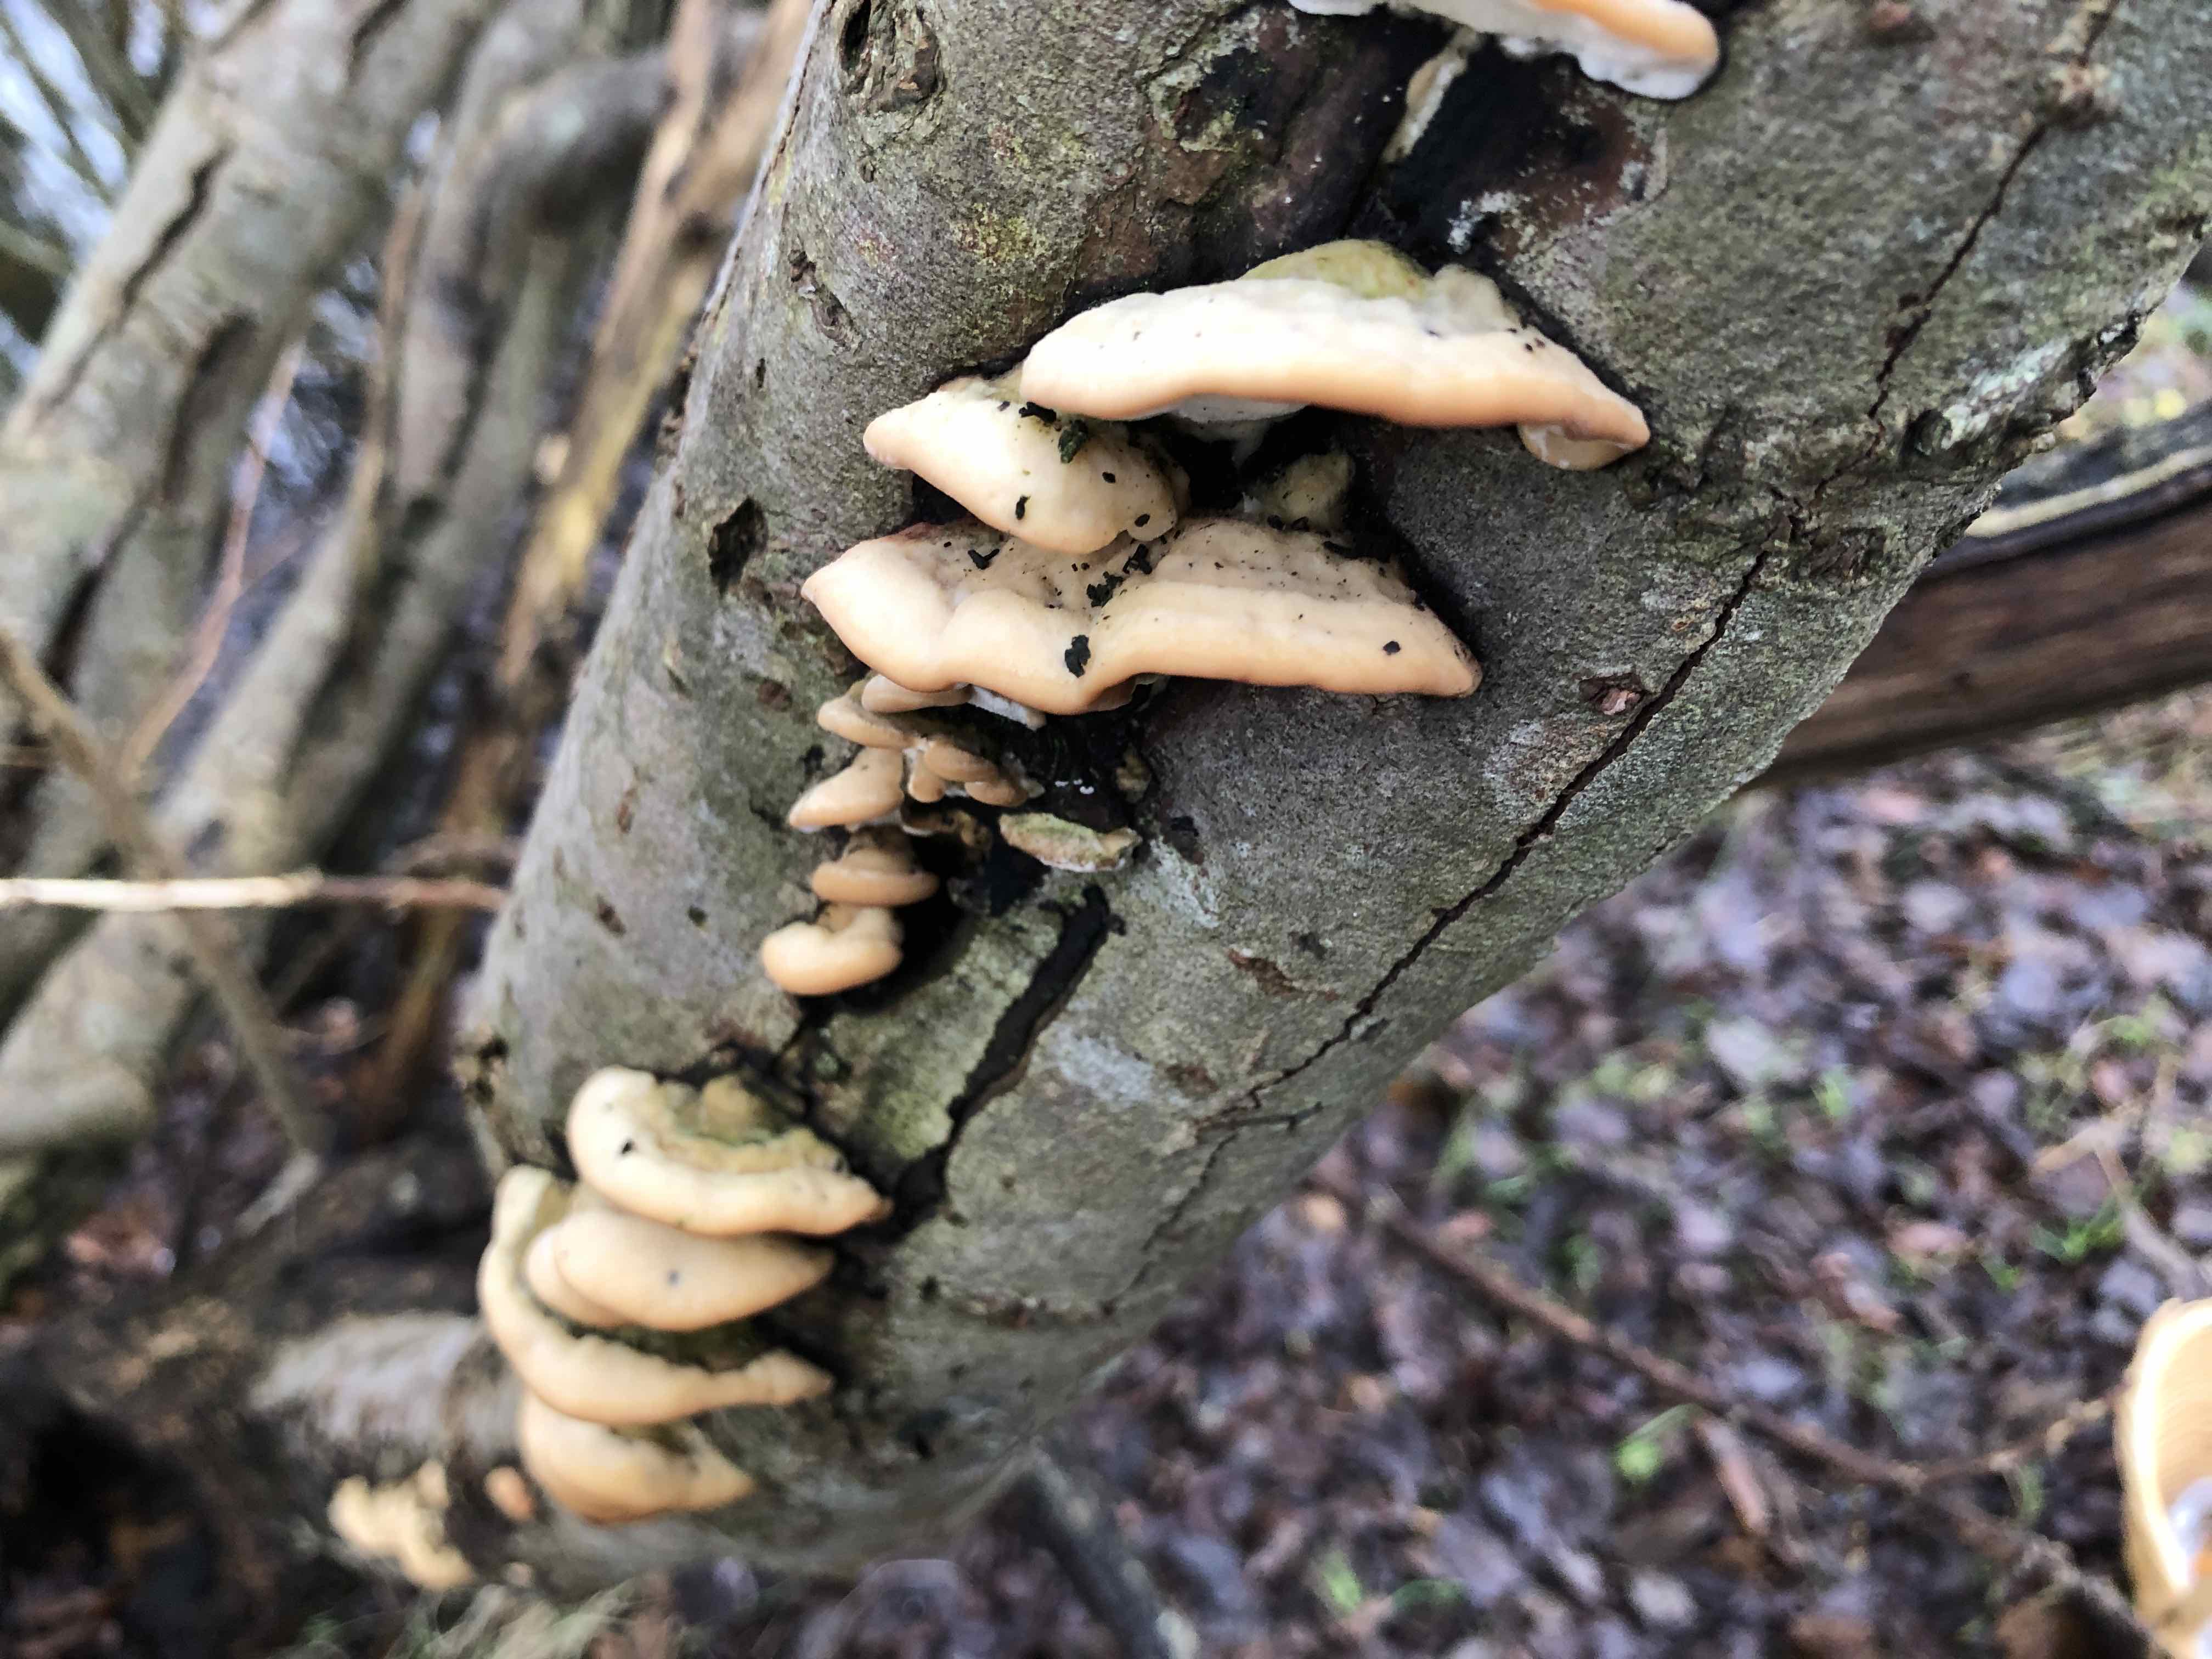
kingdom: Fungi
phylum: Basidiomycota
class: Agaricomycetes
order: Hymenochaetales
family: Oxyporaceae
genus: Oxyporus
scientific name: Oxyporus populinus
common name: sammenvokset trylleporesvamp
